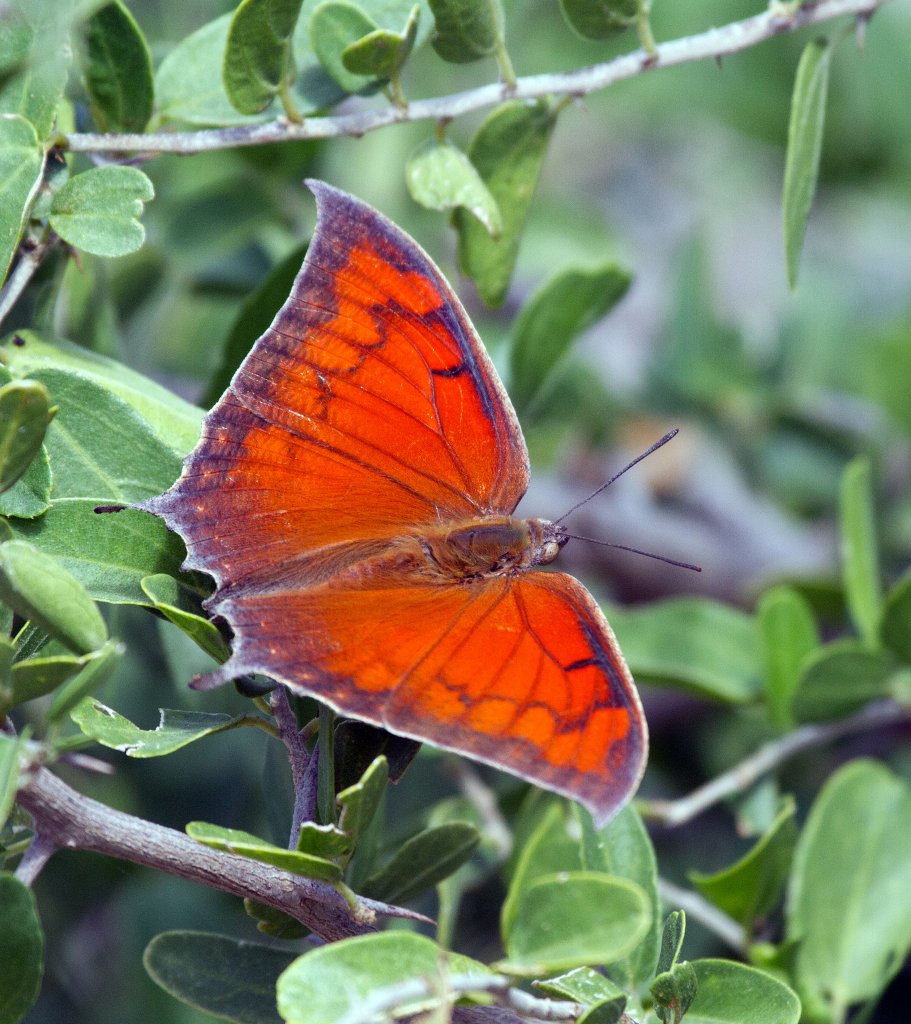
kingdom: Animalia
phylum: Arthropoda
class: Insecta
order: Lepidoptera
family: Nymphalidae
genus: Anaea
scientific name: Anaea aidea
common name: Tropical Leafwing
